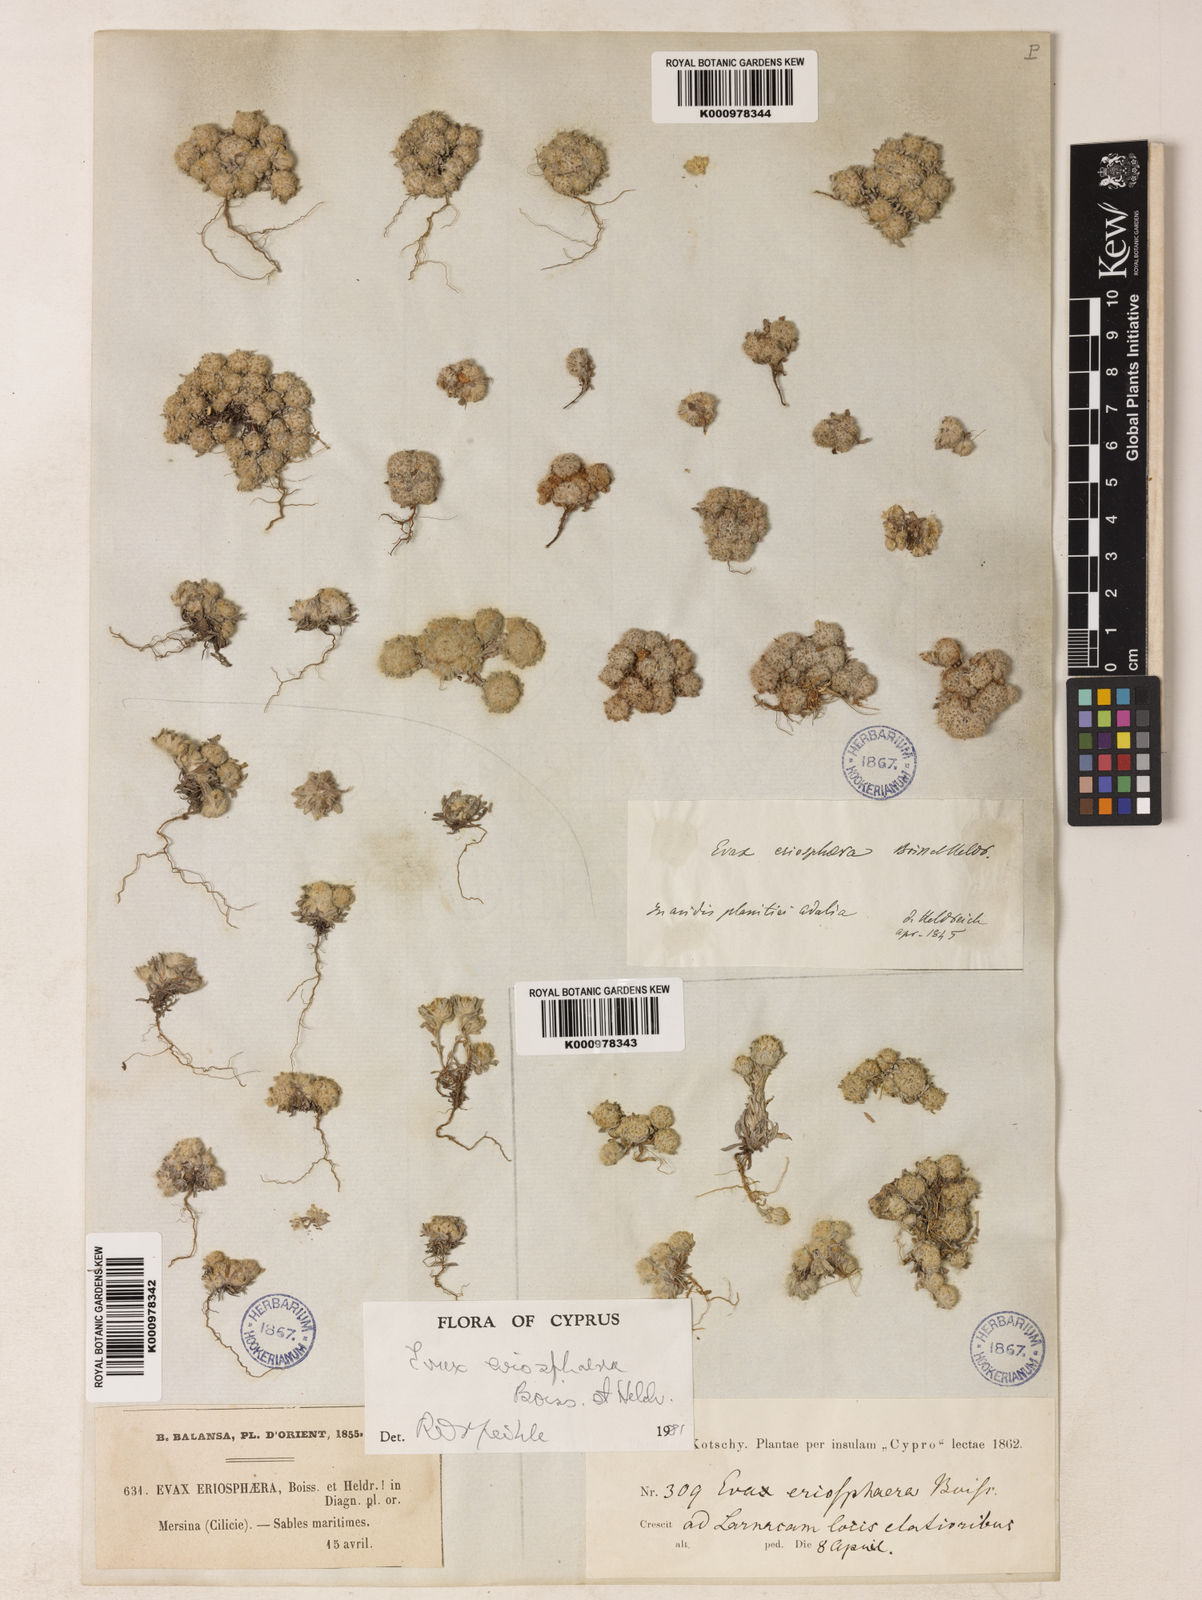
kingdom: Plantae
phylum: Tracheophyta
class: Magnoliopsida
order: Asterales
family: Asteraceae
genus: Filago
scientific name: Filago
